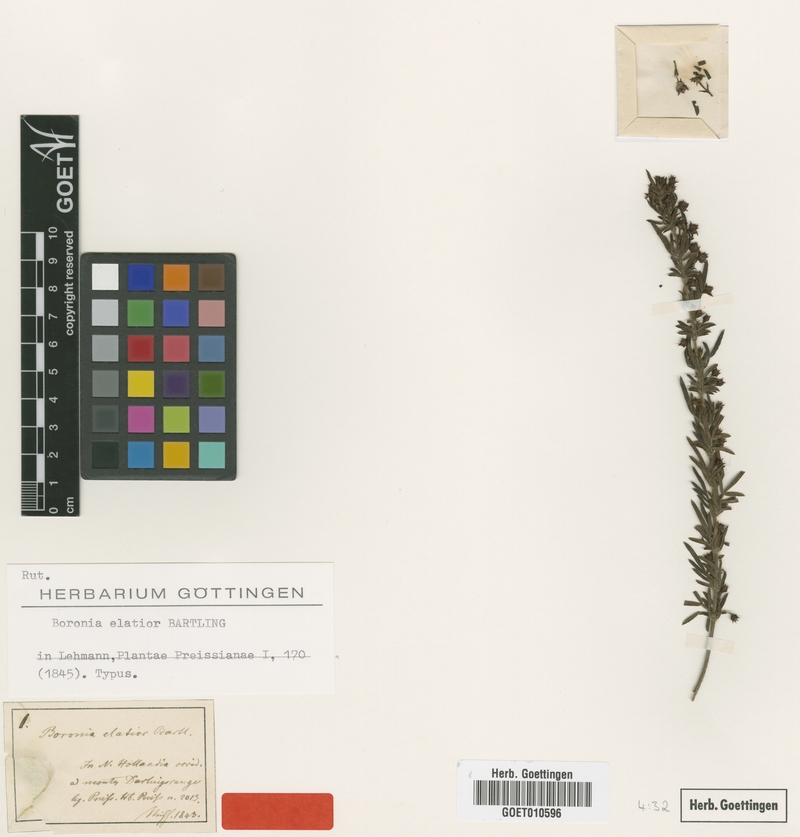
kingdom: Plantae
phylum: Tracheophyta
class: Magnoliopsida
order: Sapindales
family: Rutaceae
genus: Boronia
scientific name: Boronia molloyae
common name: Tall boronia
